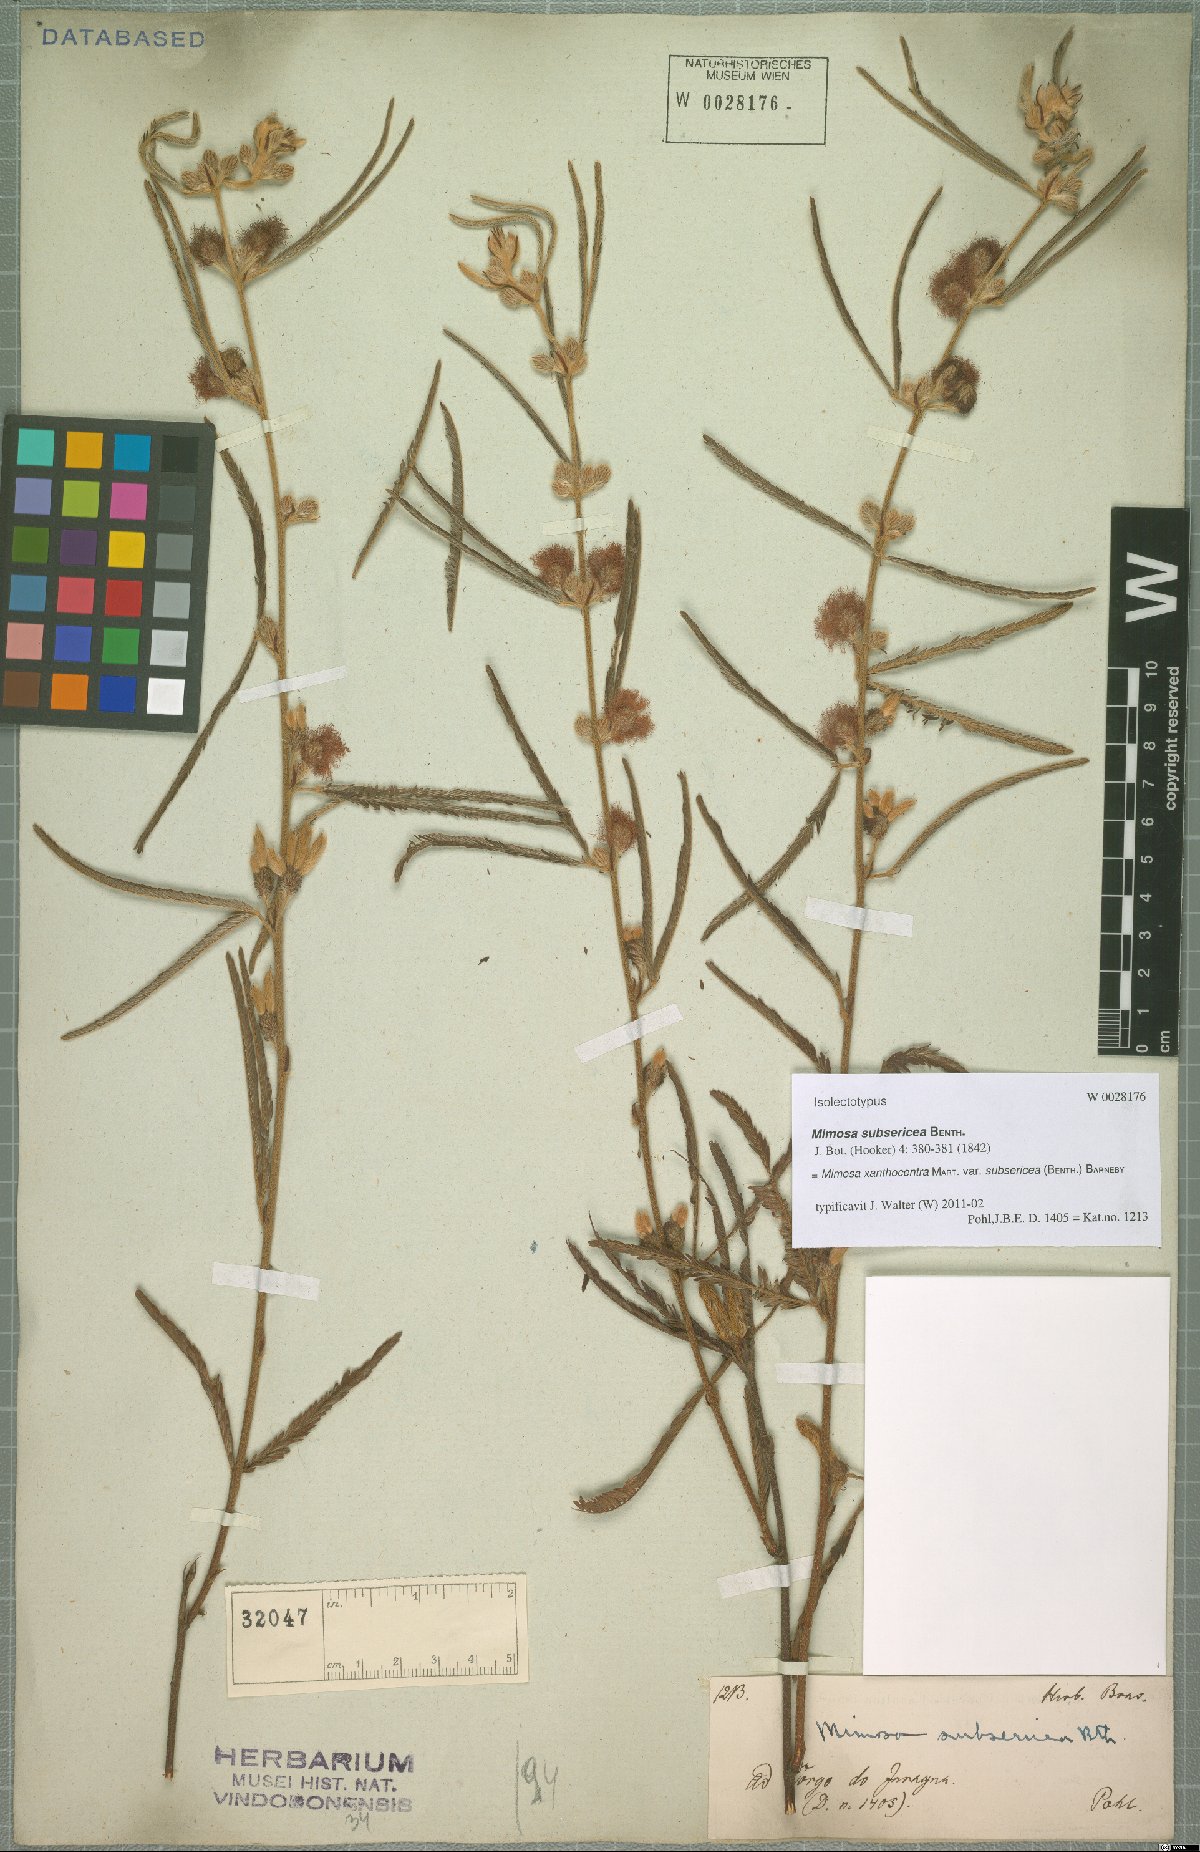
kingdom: Plantae
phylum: Tracheophyta
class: Magnoliopsida
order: Fabales
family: Fabaceae
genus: Mimosa
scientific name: Mimosa xanthocentra
